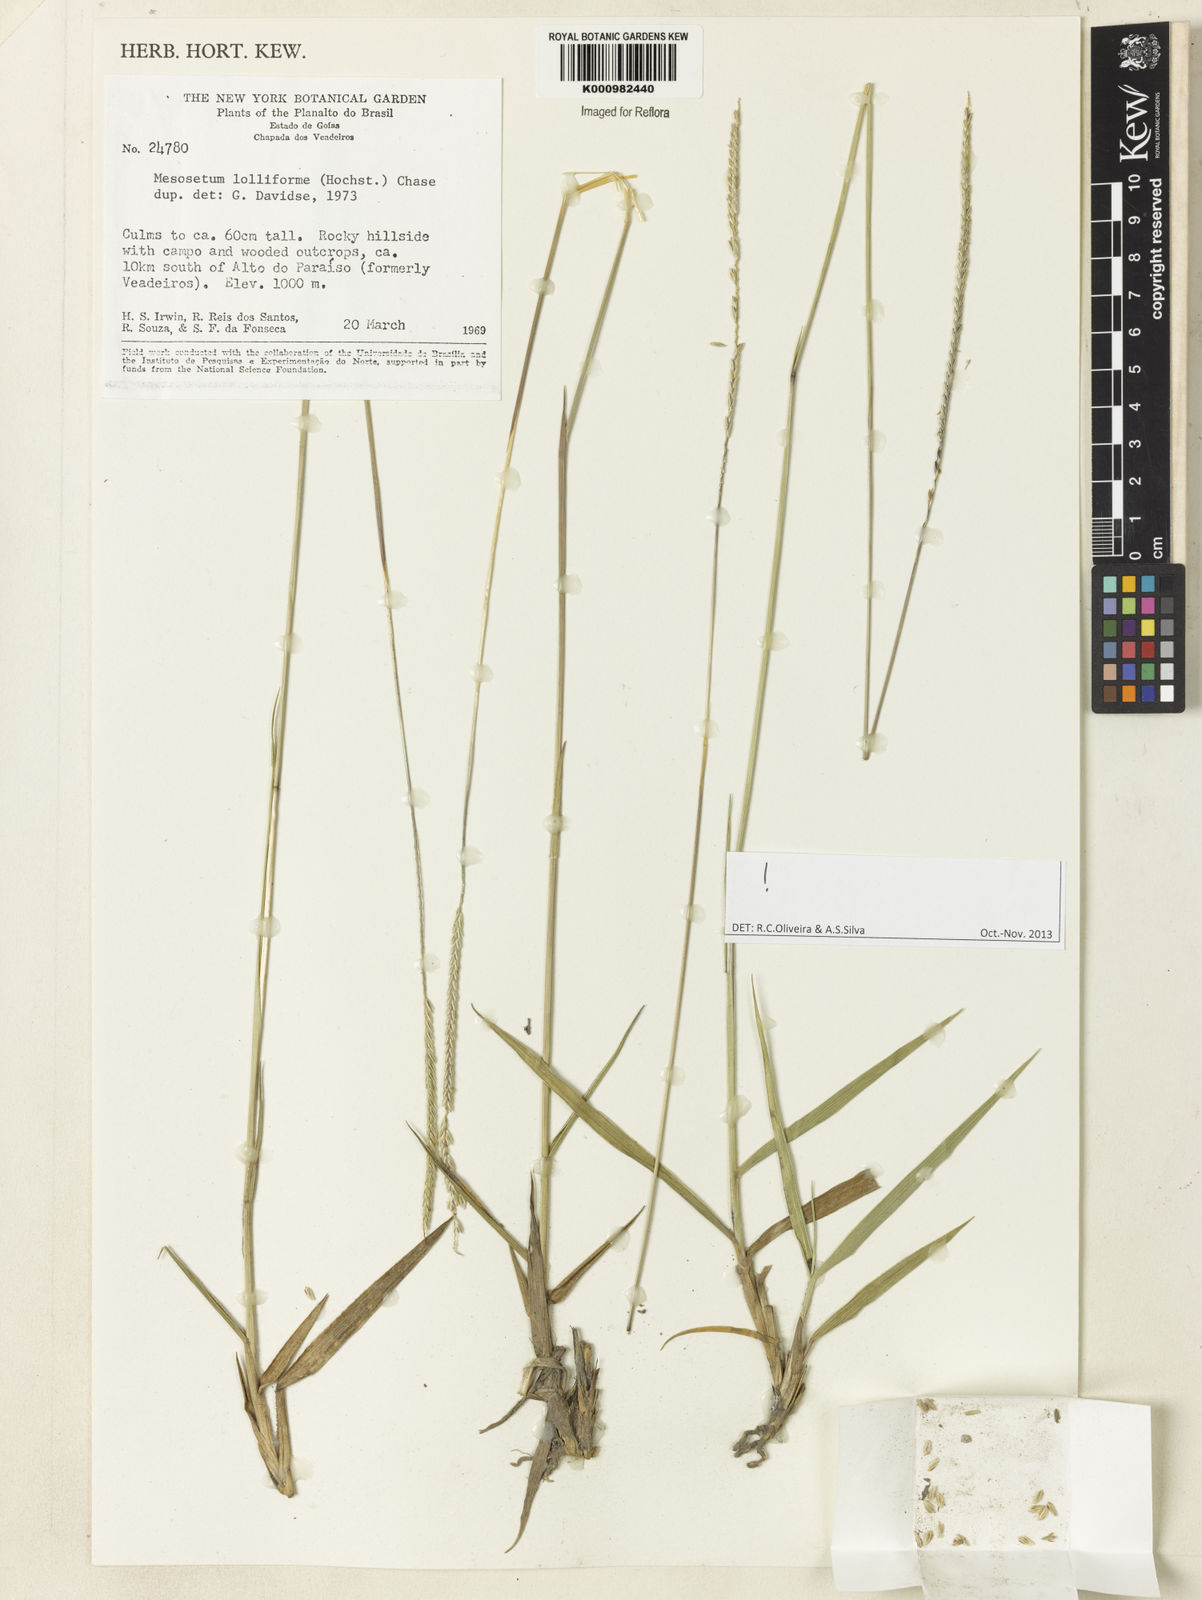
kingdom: Plantae
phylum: Tracheophyta
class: Liliopsida
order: Poales
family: Poaceae
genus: Mesosetum
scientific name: Mesosetum
